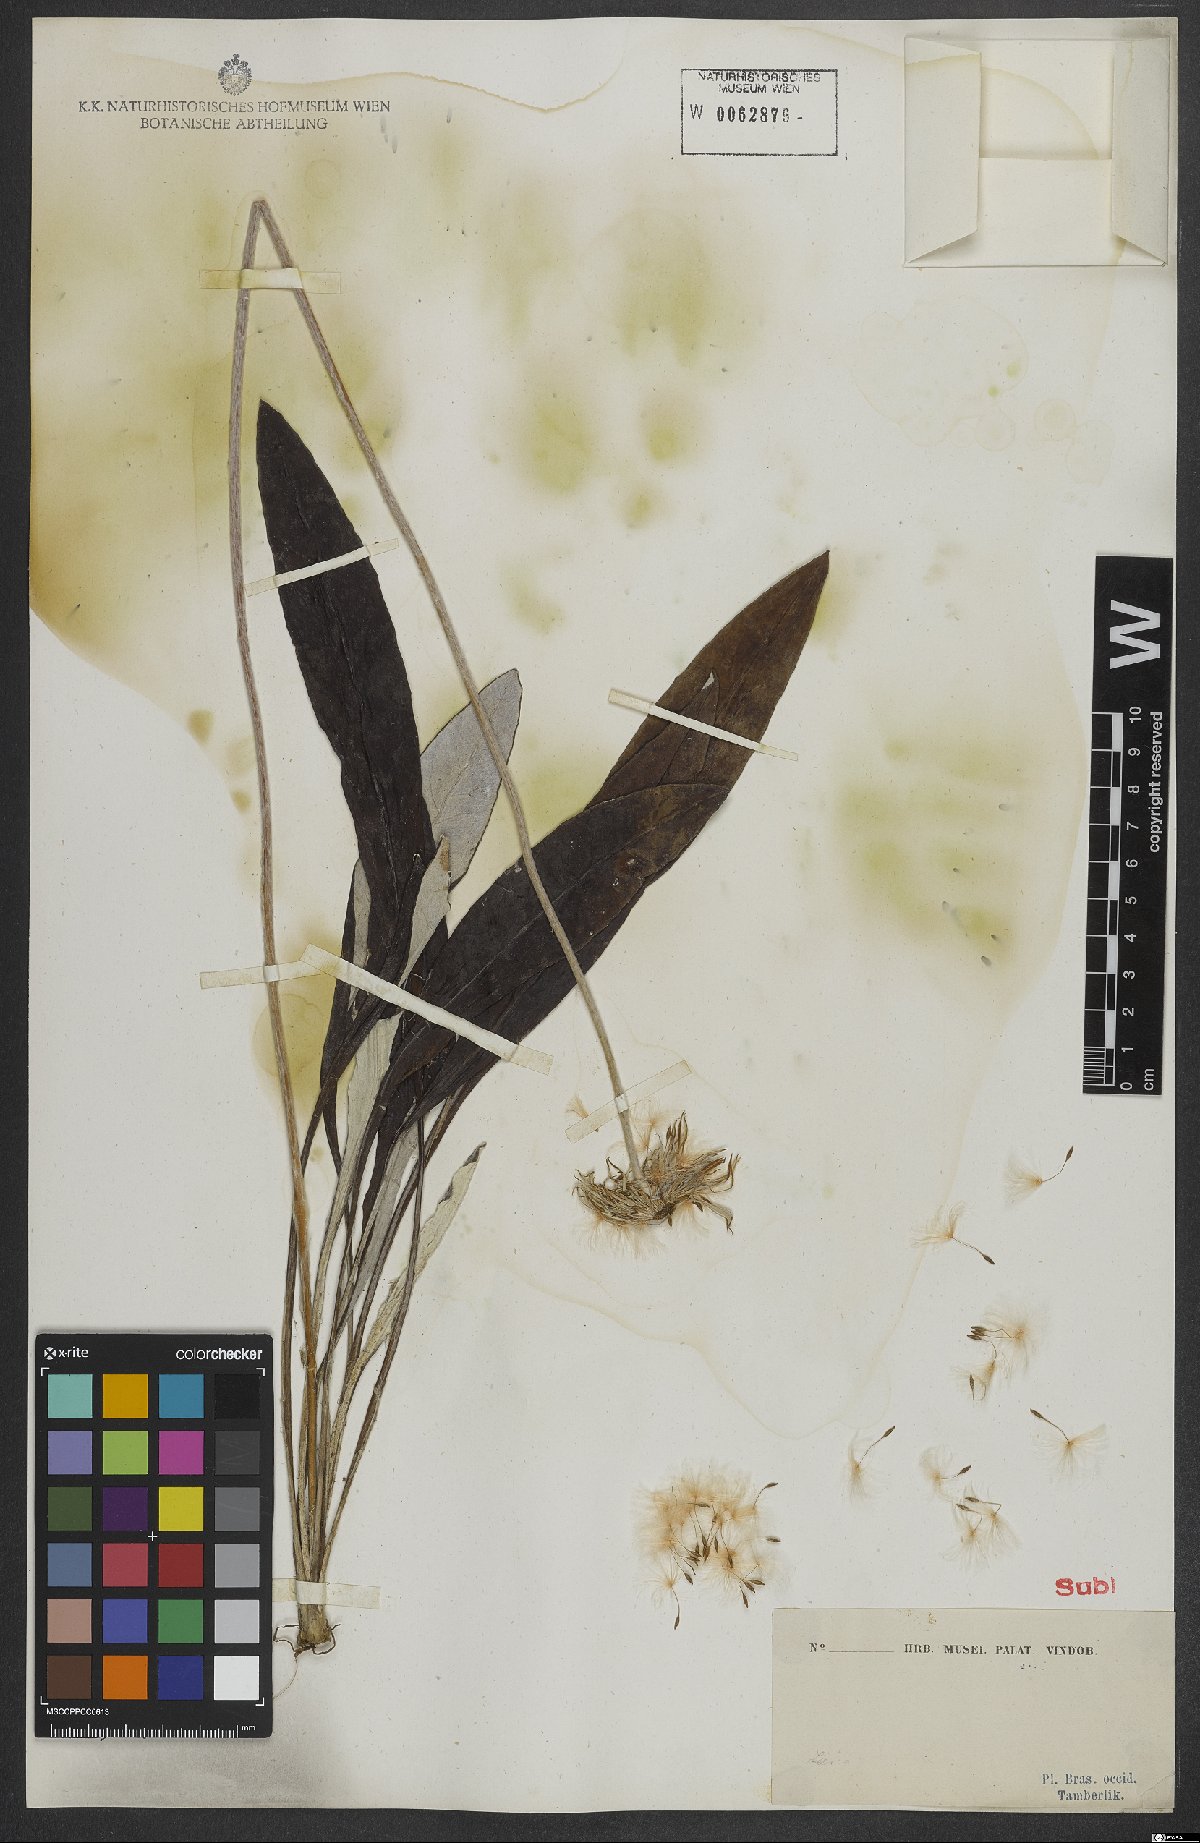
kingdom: Plantae
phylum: Tracheophyta
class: Magnoliopsida
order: Asterales
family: Asteraceae
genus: Chaptalia
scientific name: Chaptalia
